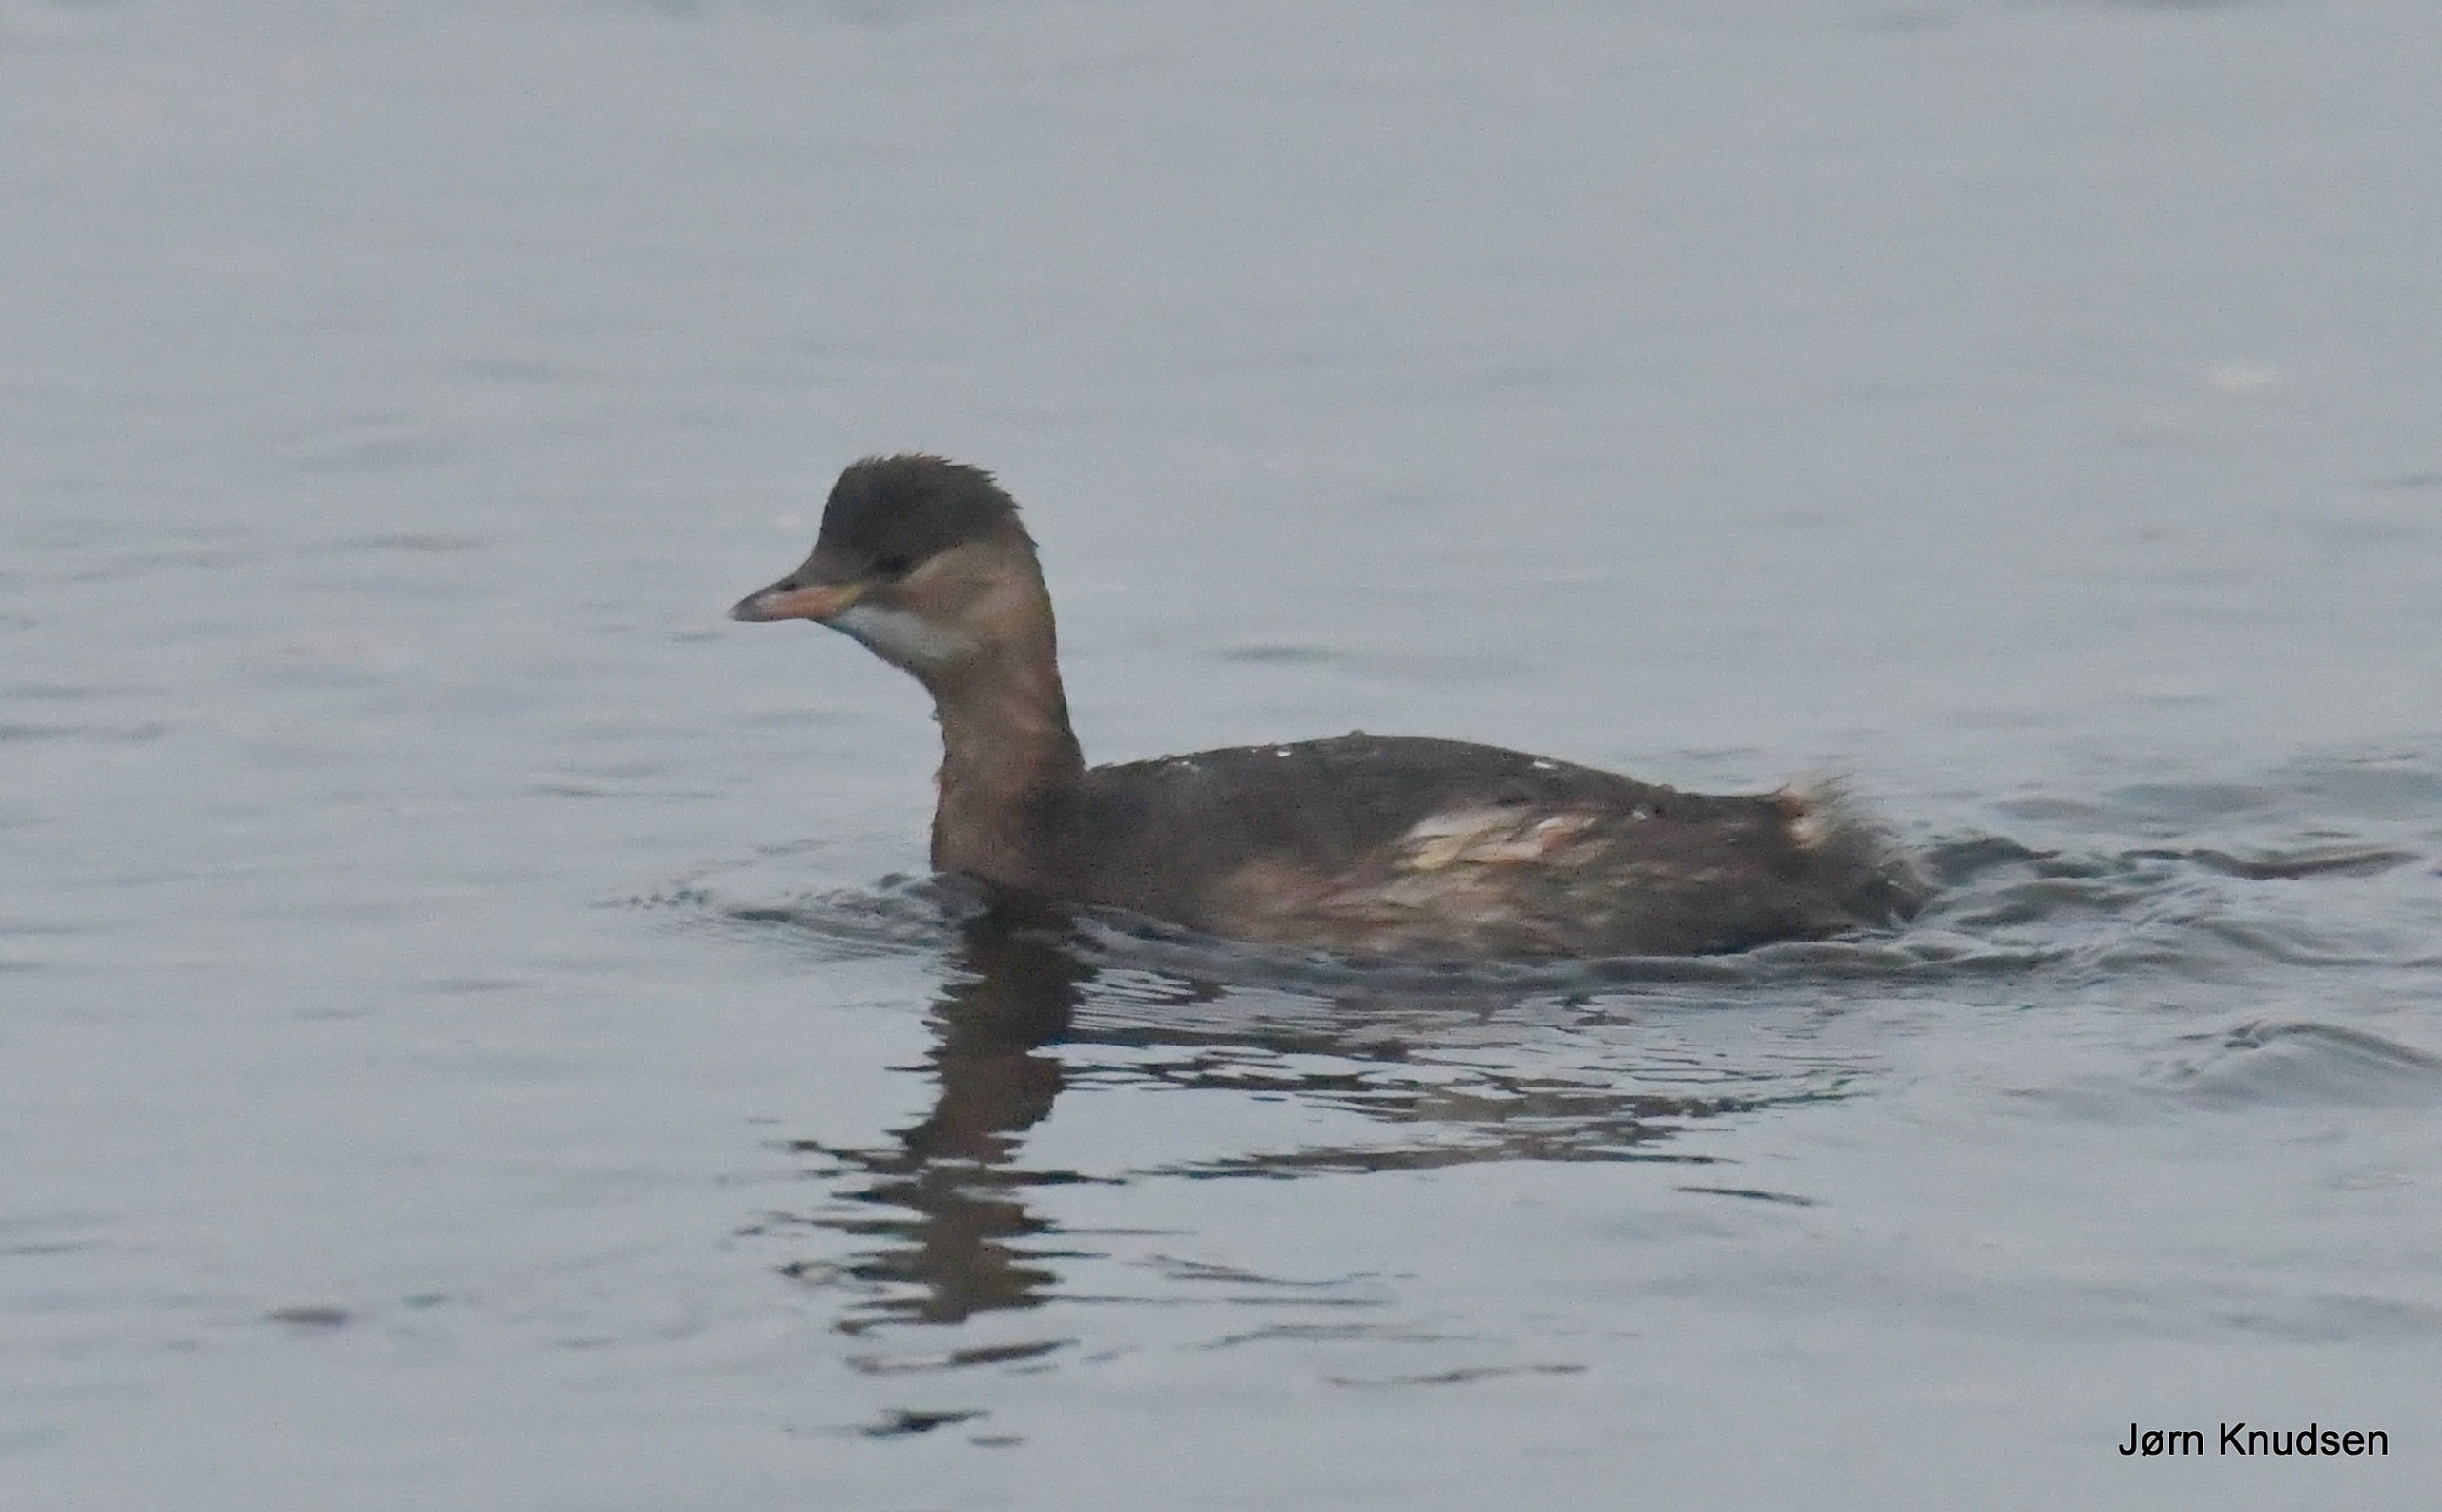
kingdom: Animalia
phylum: Chordata
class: Aves
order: Podicipediformes
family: Podicipedidae
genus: Tachybaptus
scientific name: Tachybaptus ruficollis
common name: Lille lappedykker
